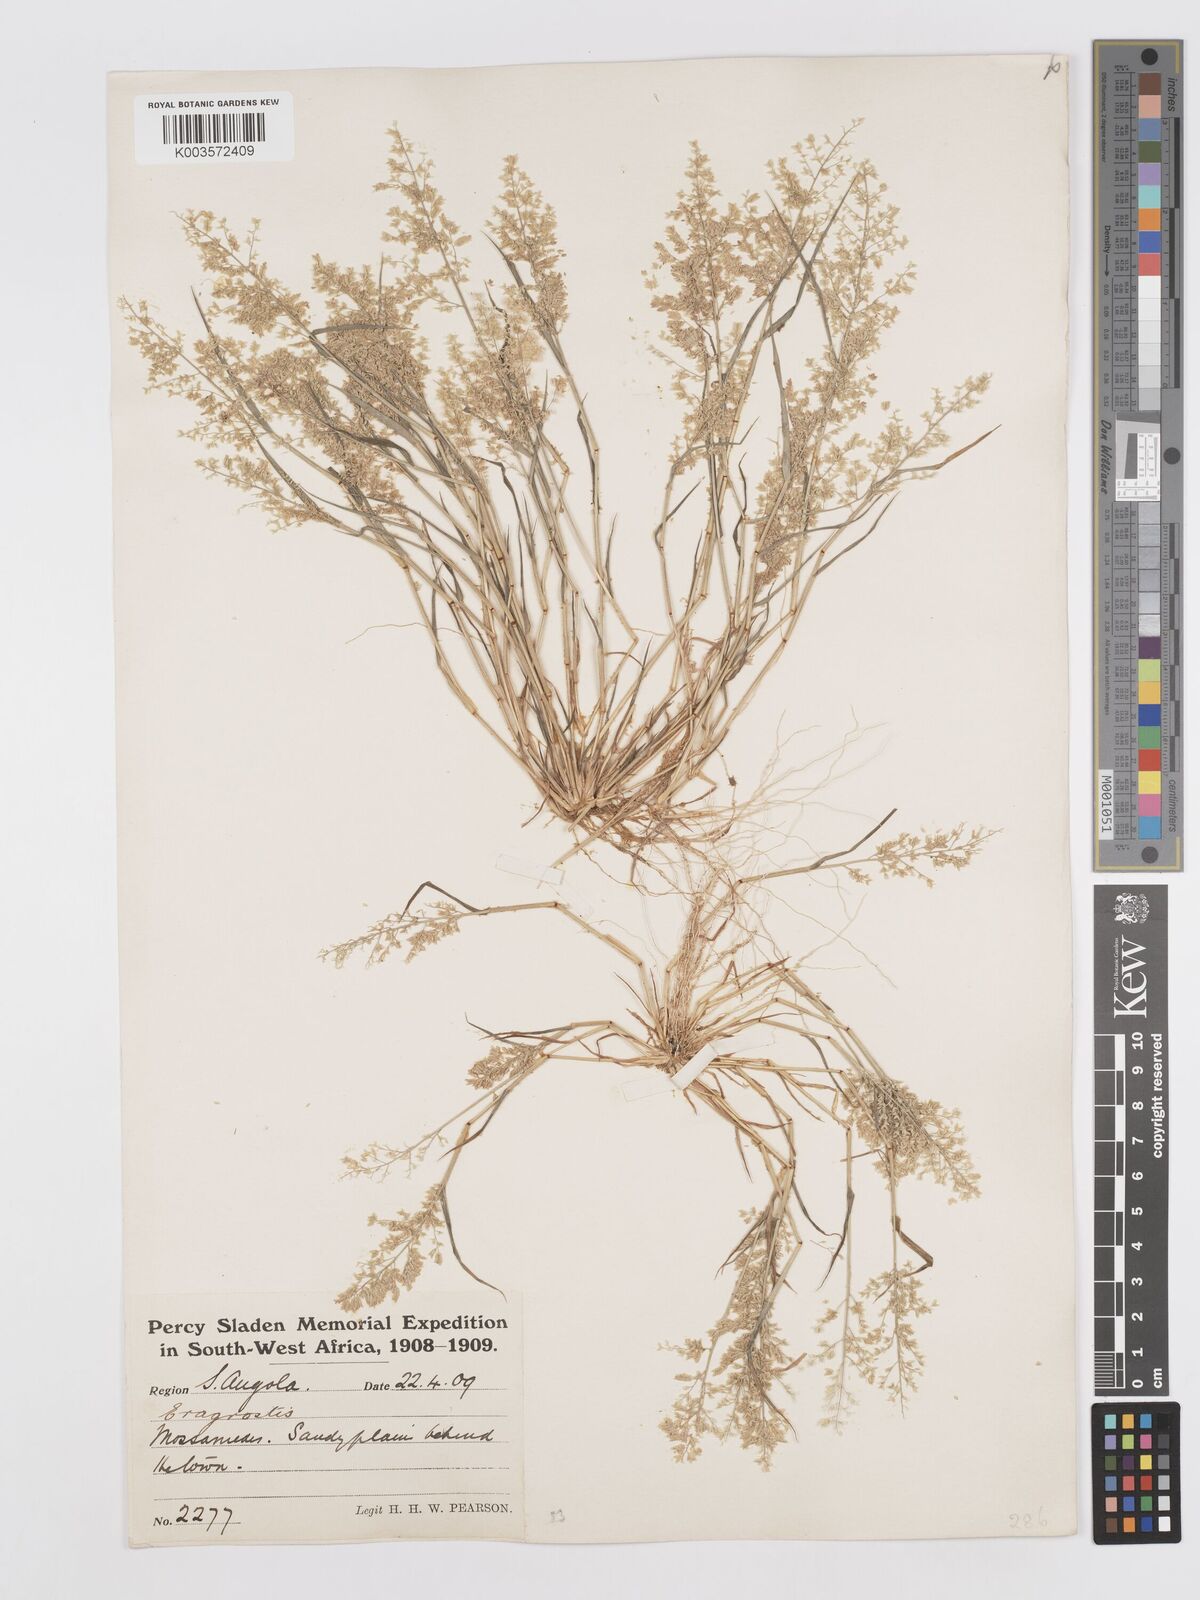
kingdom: Plantae
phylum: Tracheophyta
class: Liliopsida
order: Poales
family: Poaceae
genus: Eragrostis
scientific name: Eragrostis
